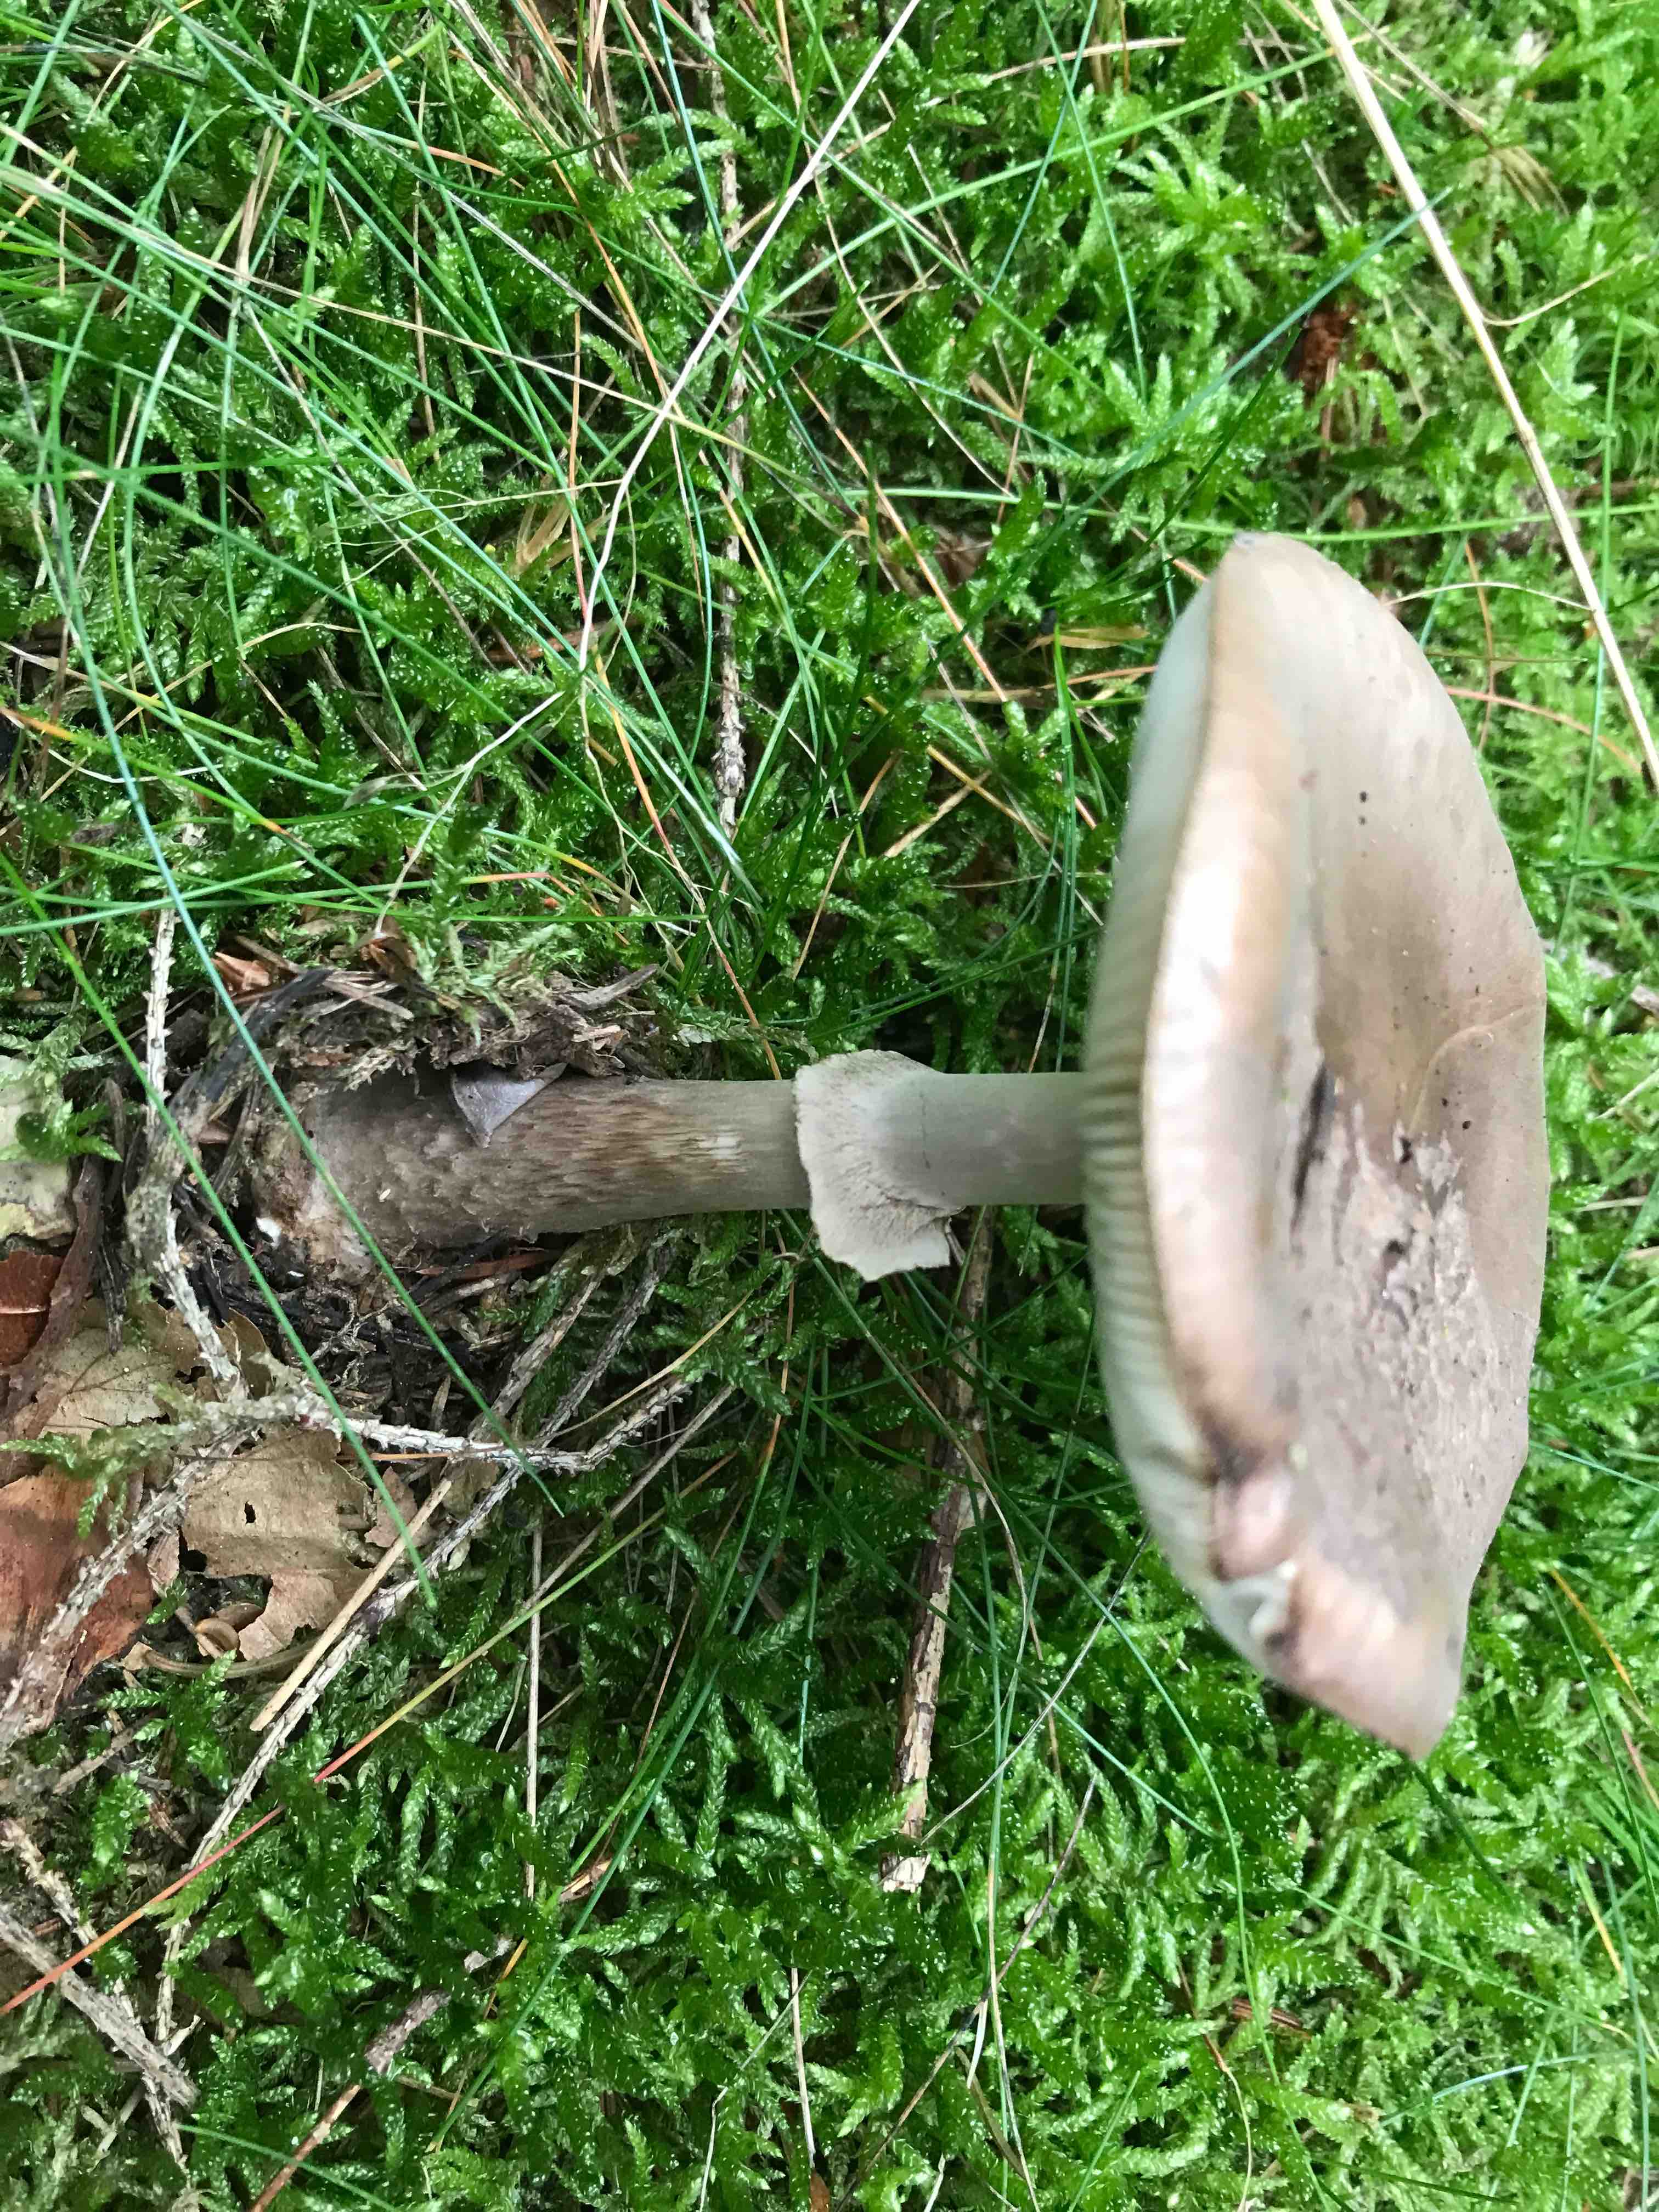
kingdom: Fungi
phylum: Basidiomycota
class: Agaricomycetes
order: Agaricales
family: Amanitaceae
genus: Amanita
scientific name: Amanita porphyria
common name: porfyr-fluesvamp
